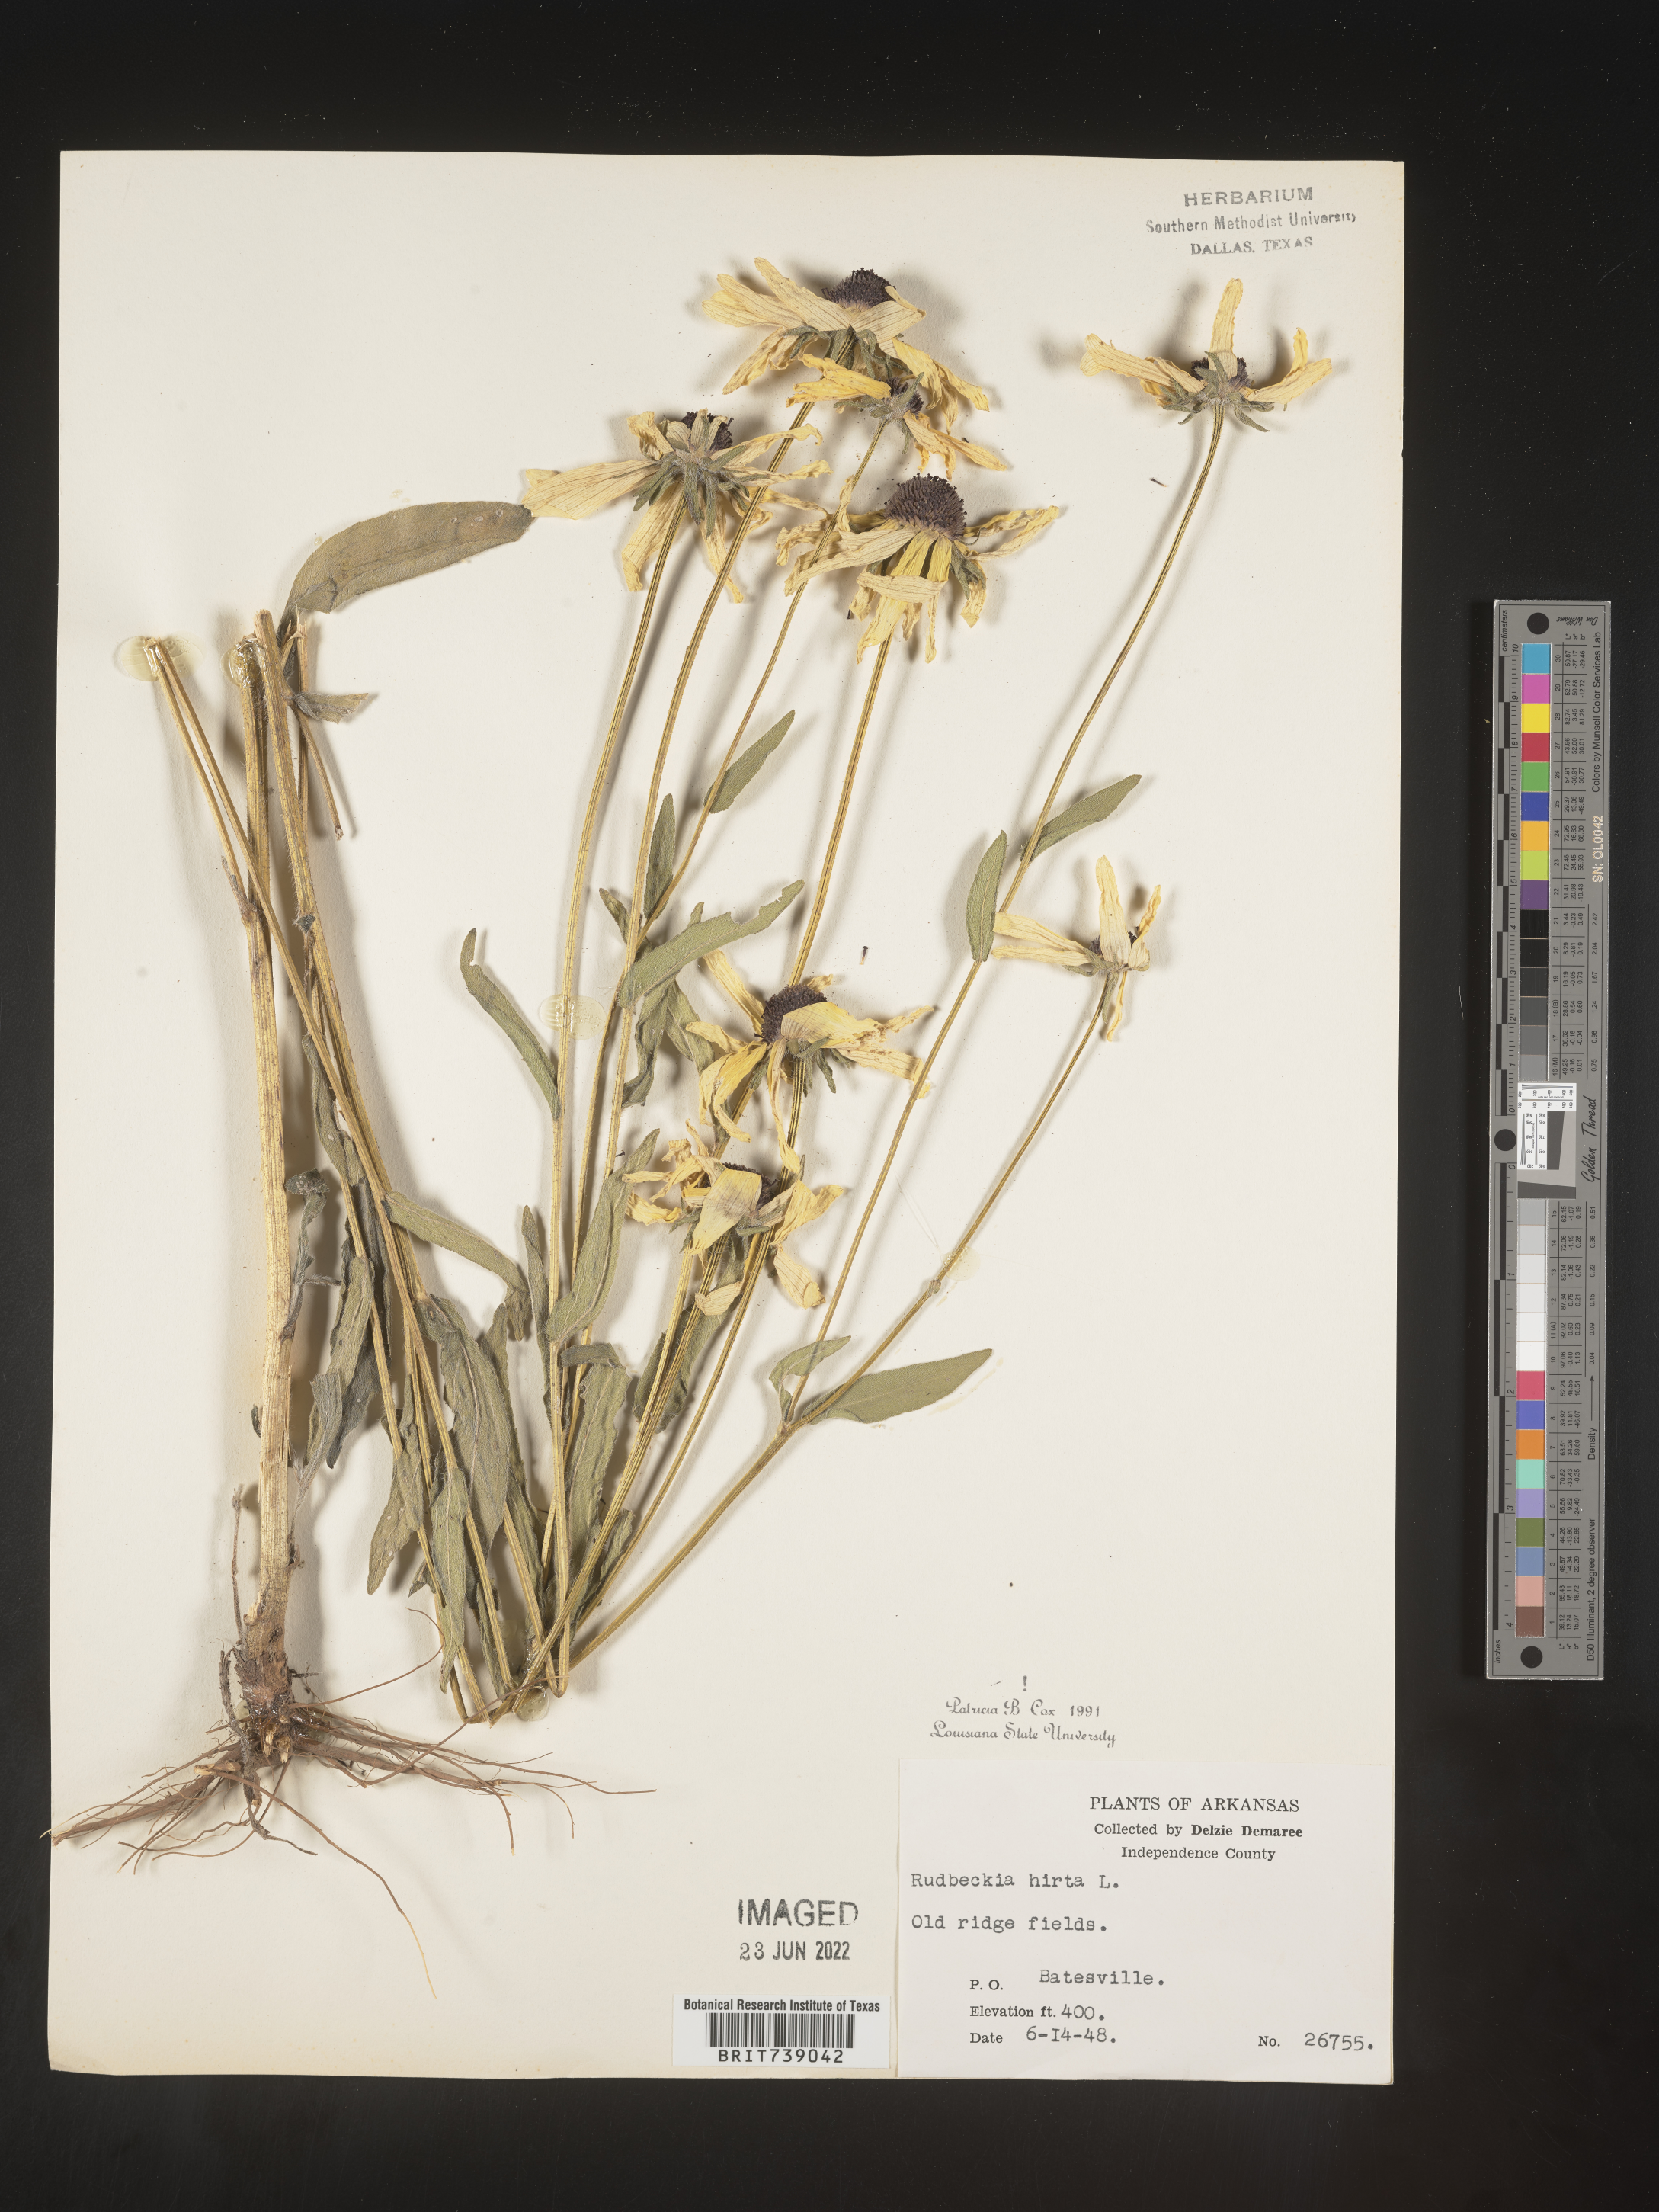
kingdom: Plantae
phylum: Tracheophyta
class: Magnoliopsida
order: Asterales
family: Asteraceae
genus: Rudbeckia
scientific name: Rudbeckia hirta
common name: Black-eyed-susan
